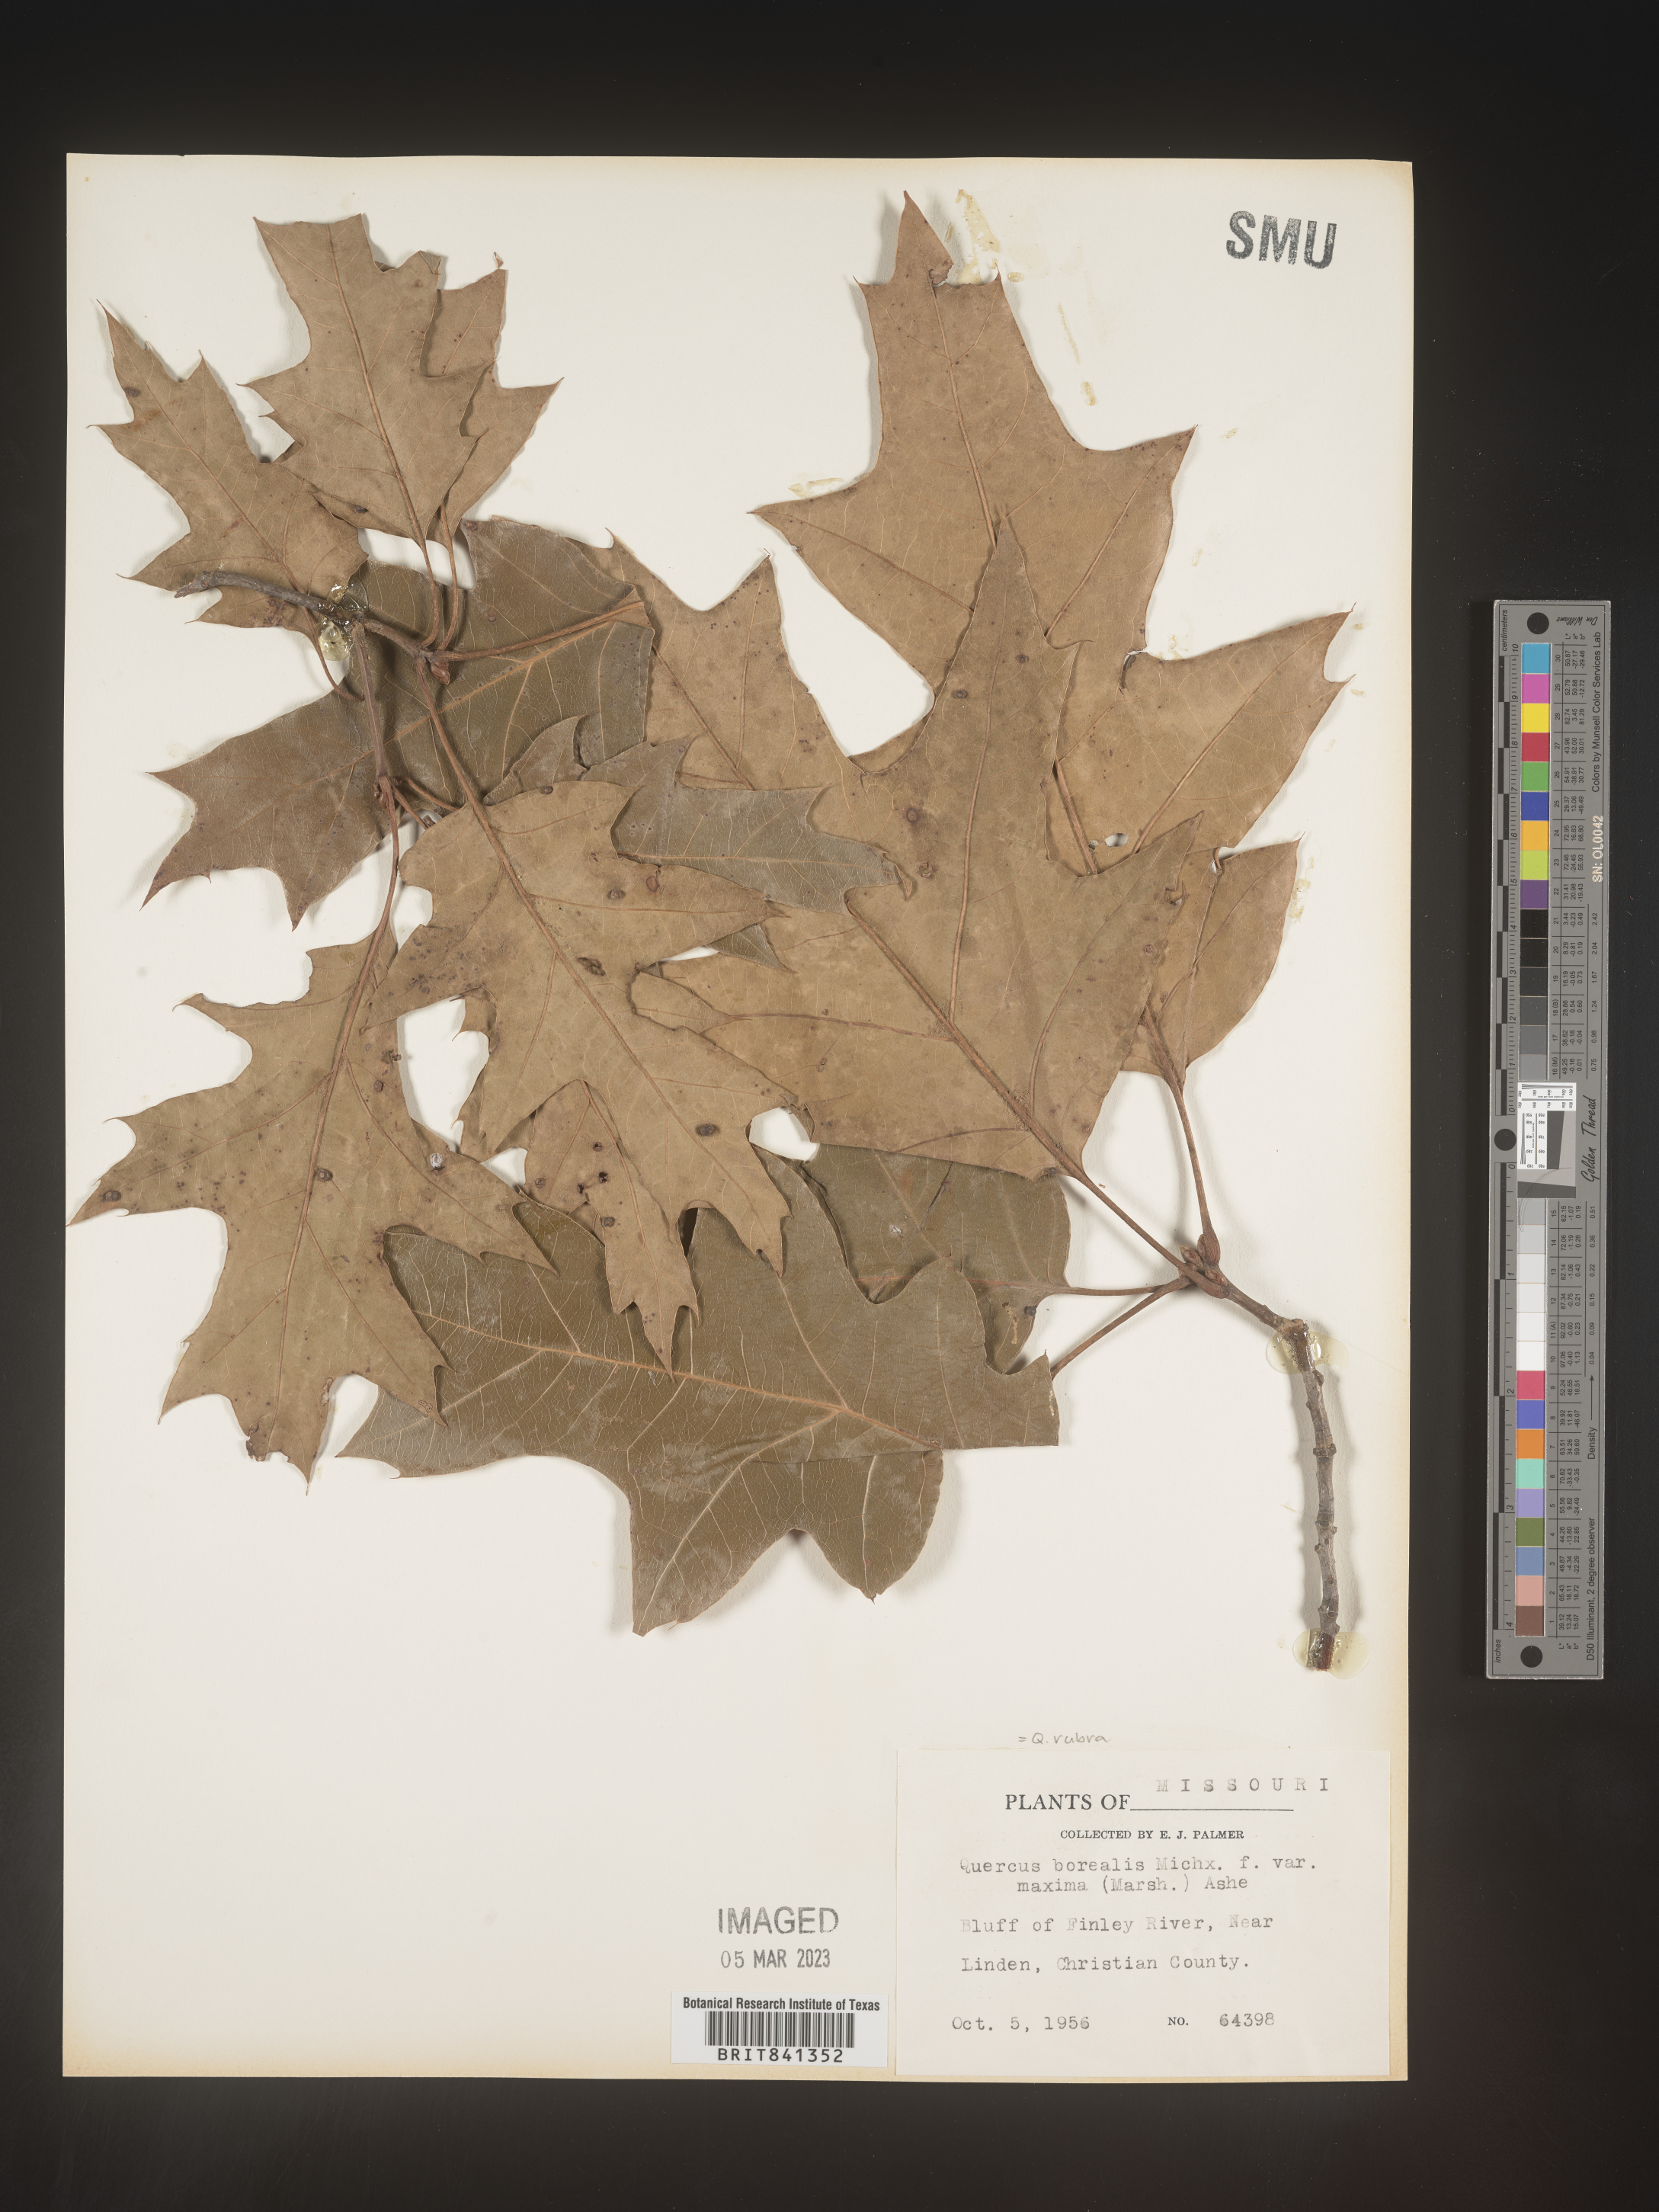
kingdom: Plantae
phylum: Tracheophyta
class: Magnoliopsida
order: Fagales
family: Fagaceae
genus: Quercus
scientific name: Quercus rubra
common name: Red oak
